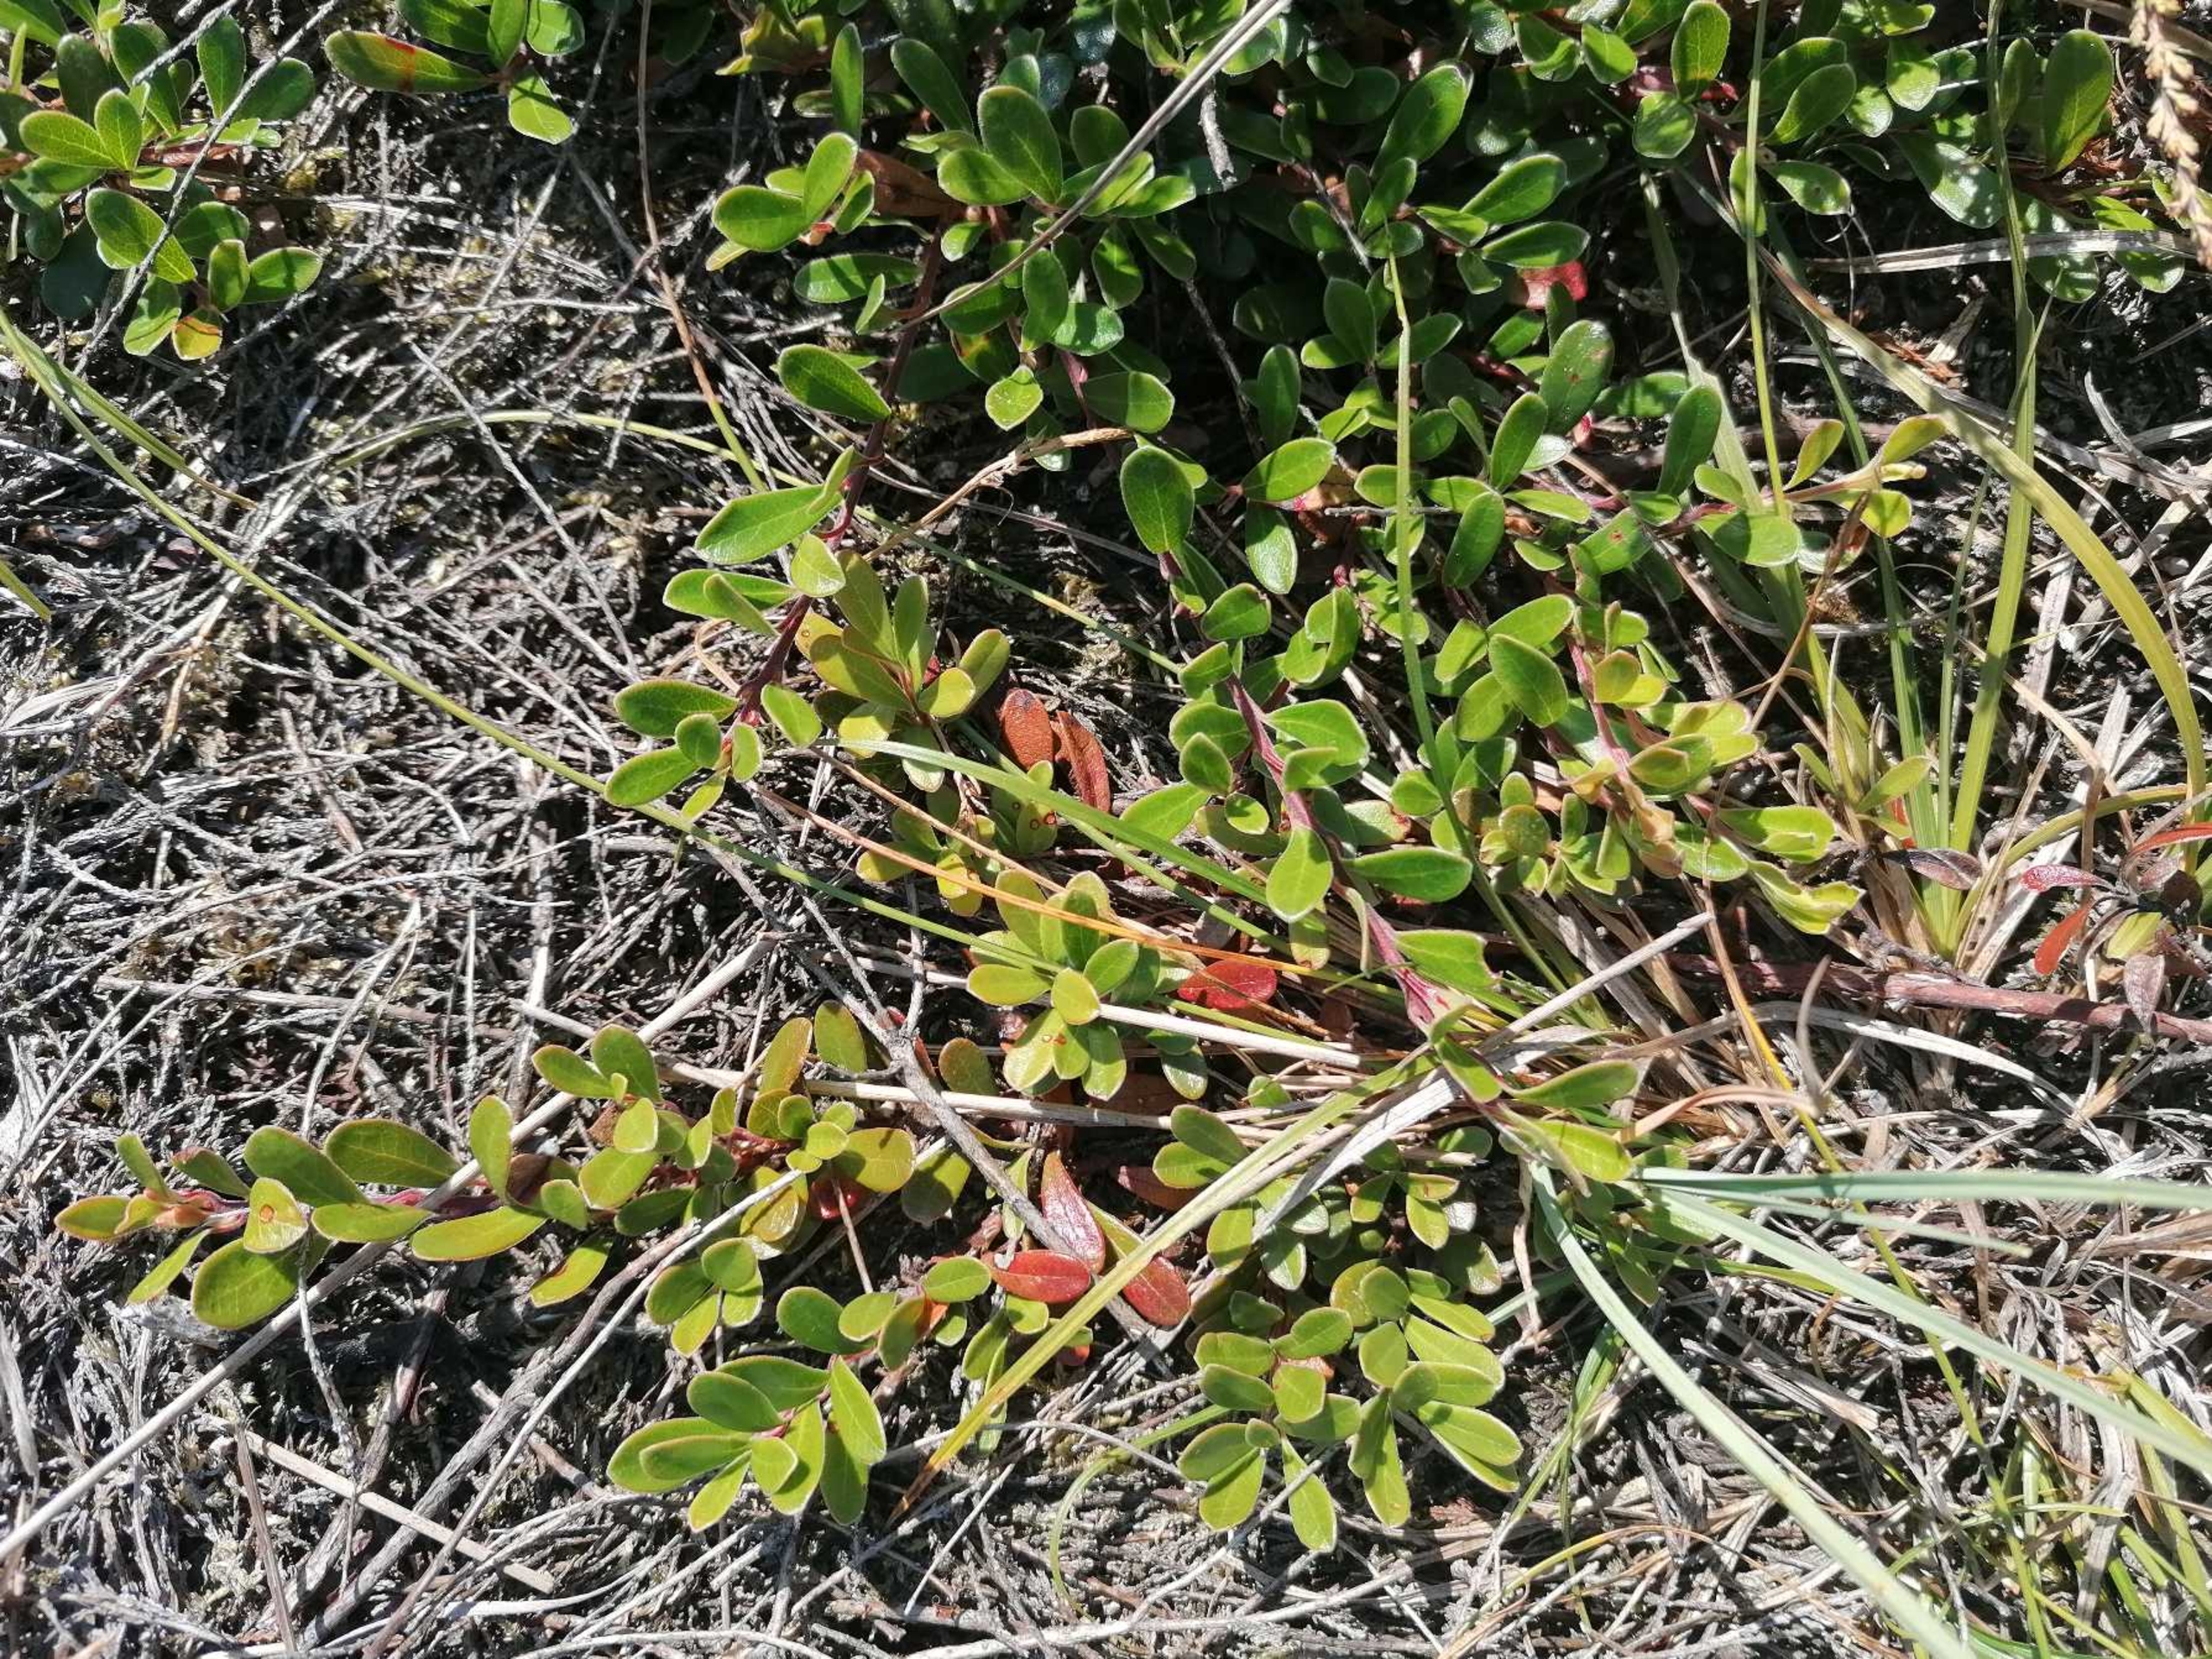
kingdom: Plantae
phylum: Tracheophyta
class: Magnoliopsida
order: Ericales
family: Ericaceae
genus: Arctostaphylos
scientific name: Arctostaphylos uva-ursi
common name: Hede-melbærris
